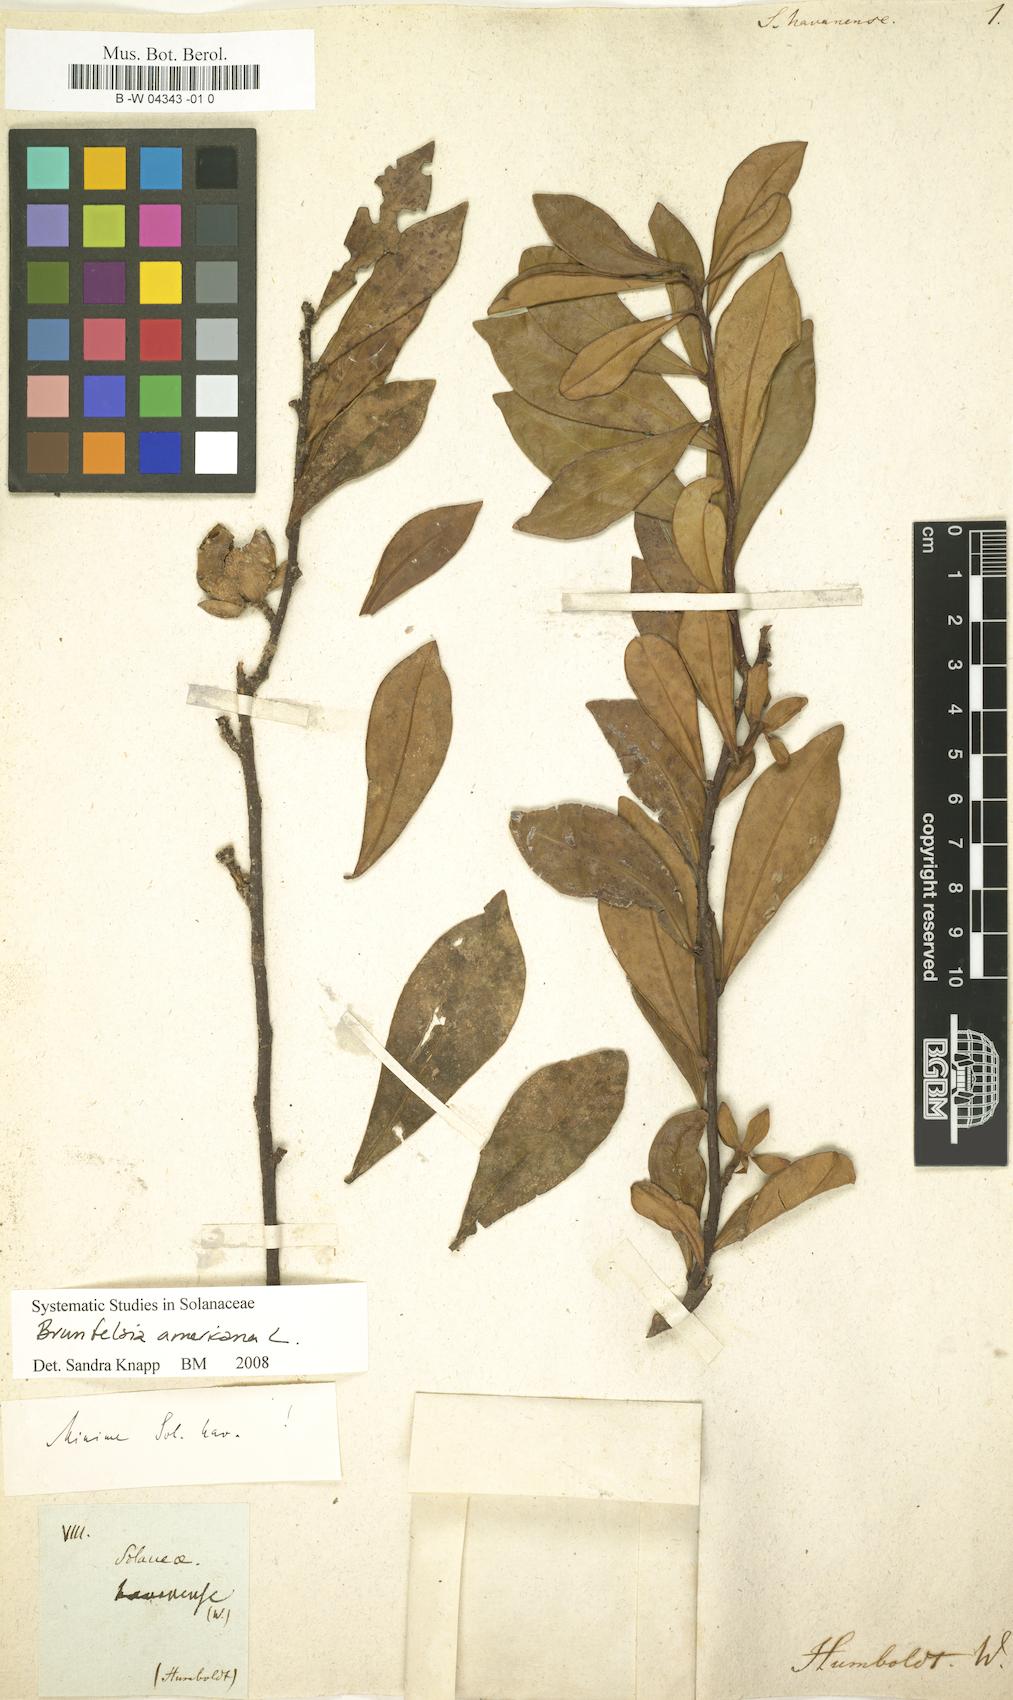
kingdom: Plantae
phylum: Tracheophyta
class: Magnoliopsida
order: Solanales
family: Solanaceae
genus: Solanum
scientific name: Solanum havanense
